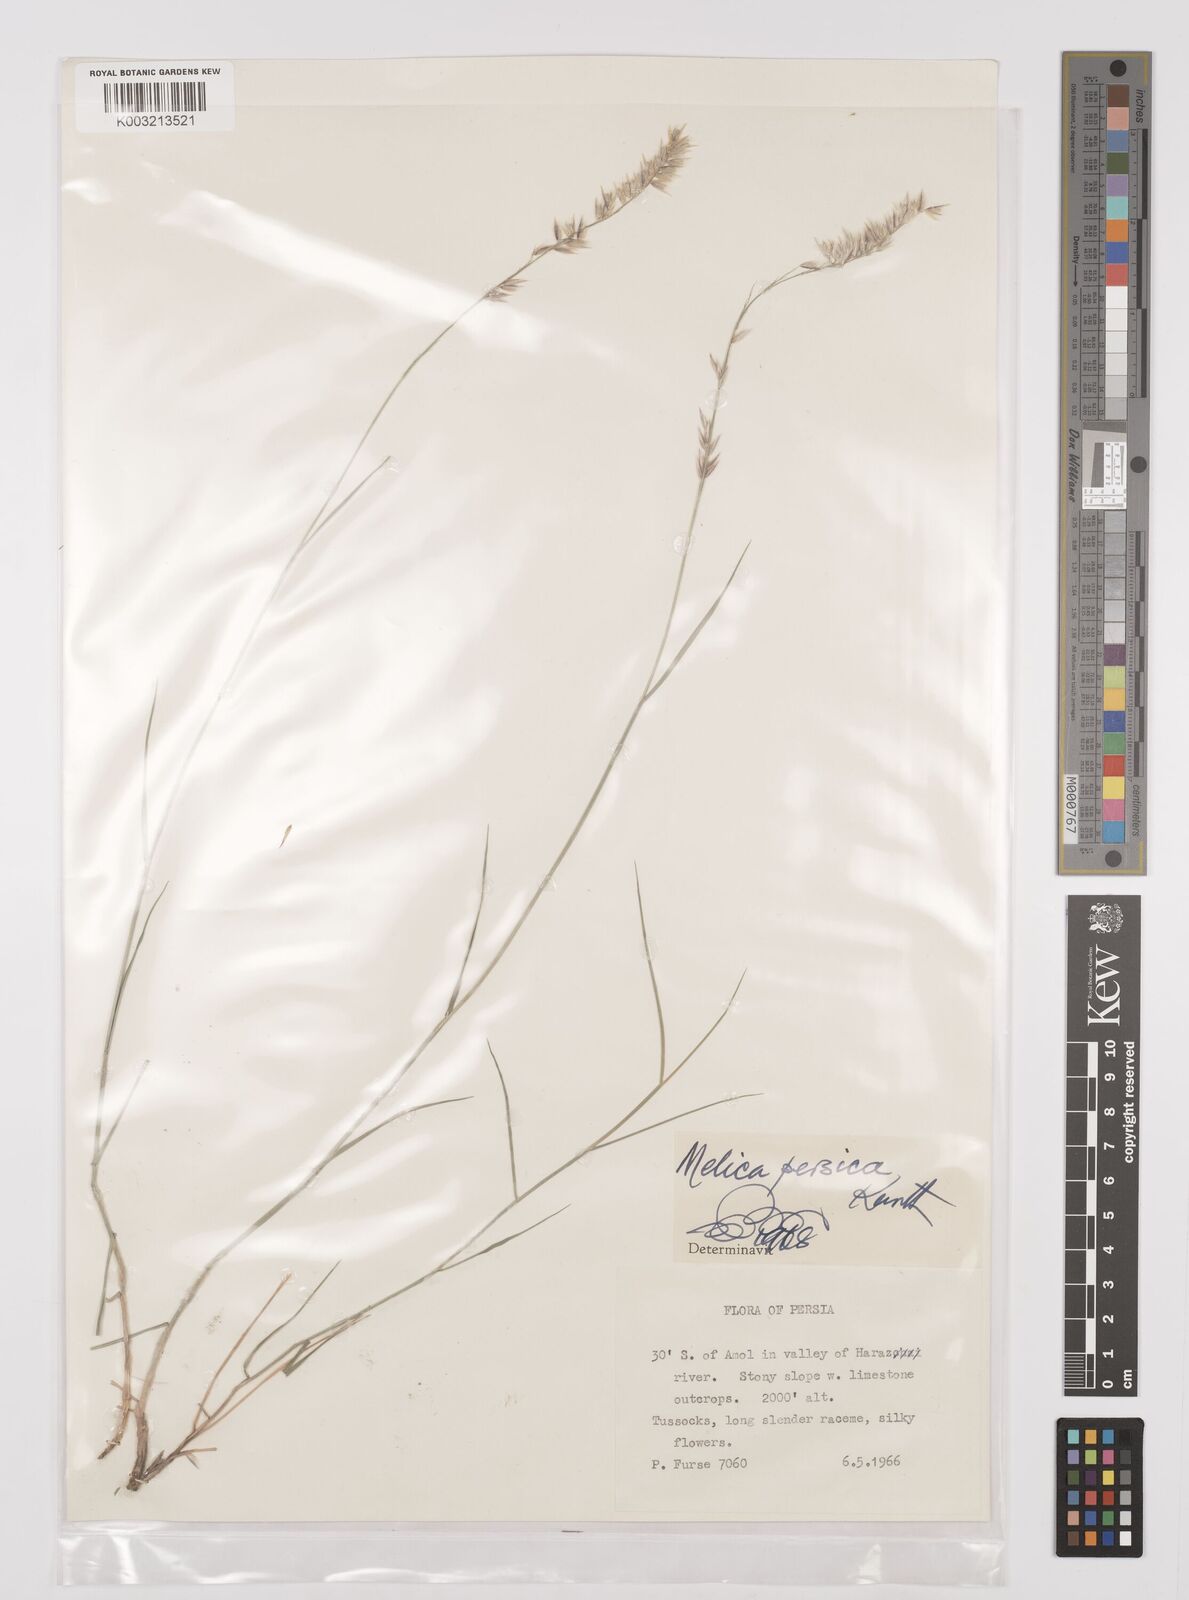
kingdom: Plantae
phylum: Tracheophyta
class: Liliopsida
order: Poales
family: Poaceae
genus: Melica
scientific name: Melica persica
